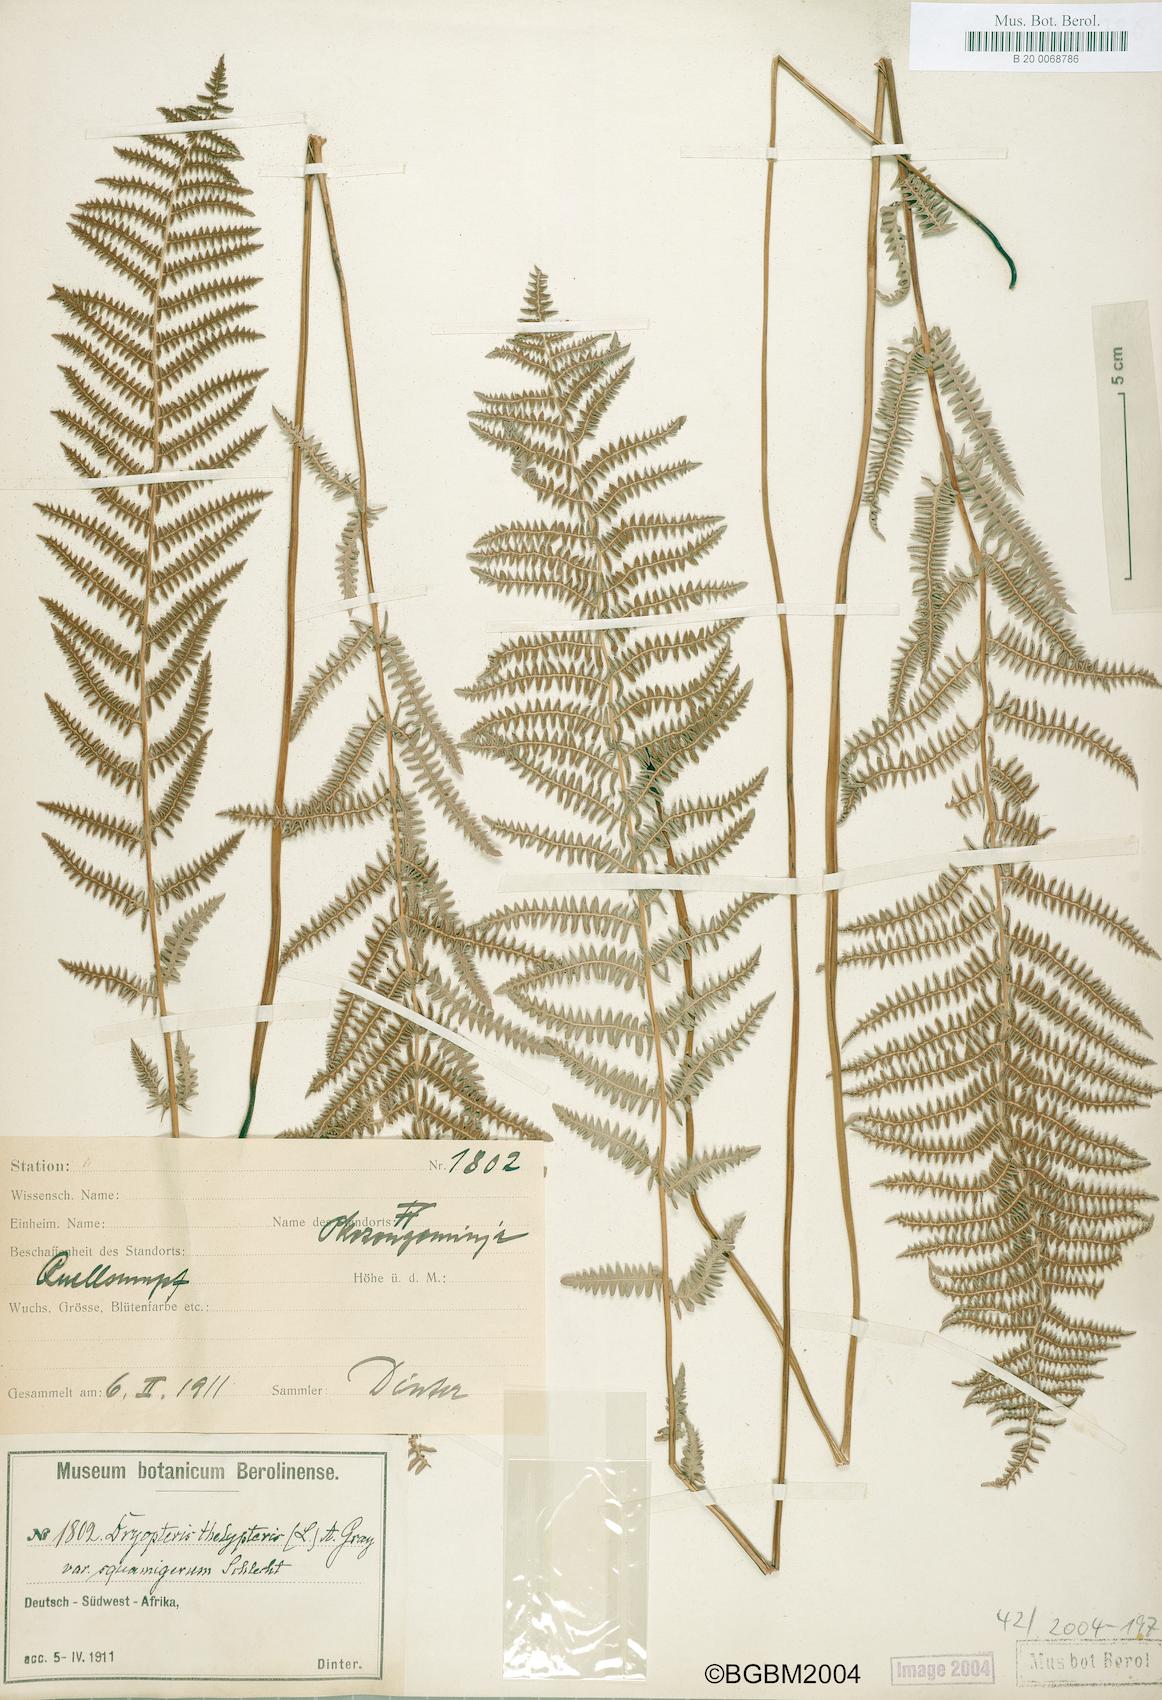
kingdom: Plantae
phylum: Tracheophyta
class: Polypodiopsida
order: Polypodiales
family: Thelypteridaceae
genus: Thelypteris
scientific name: Thelypteris palustris
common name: Marsh fern
